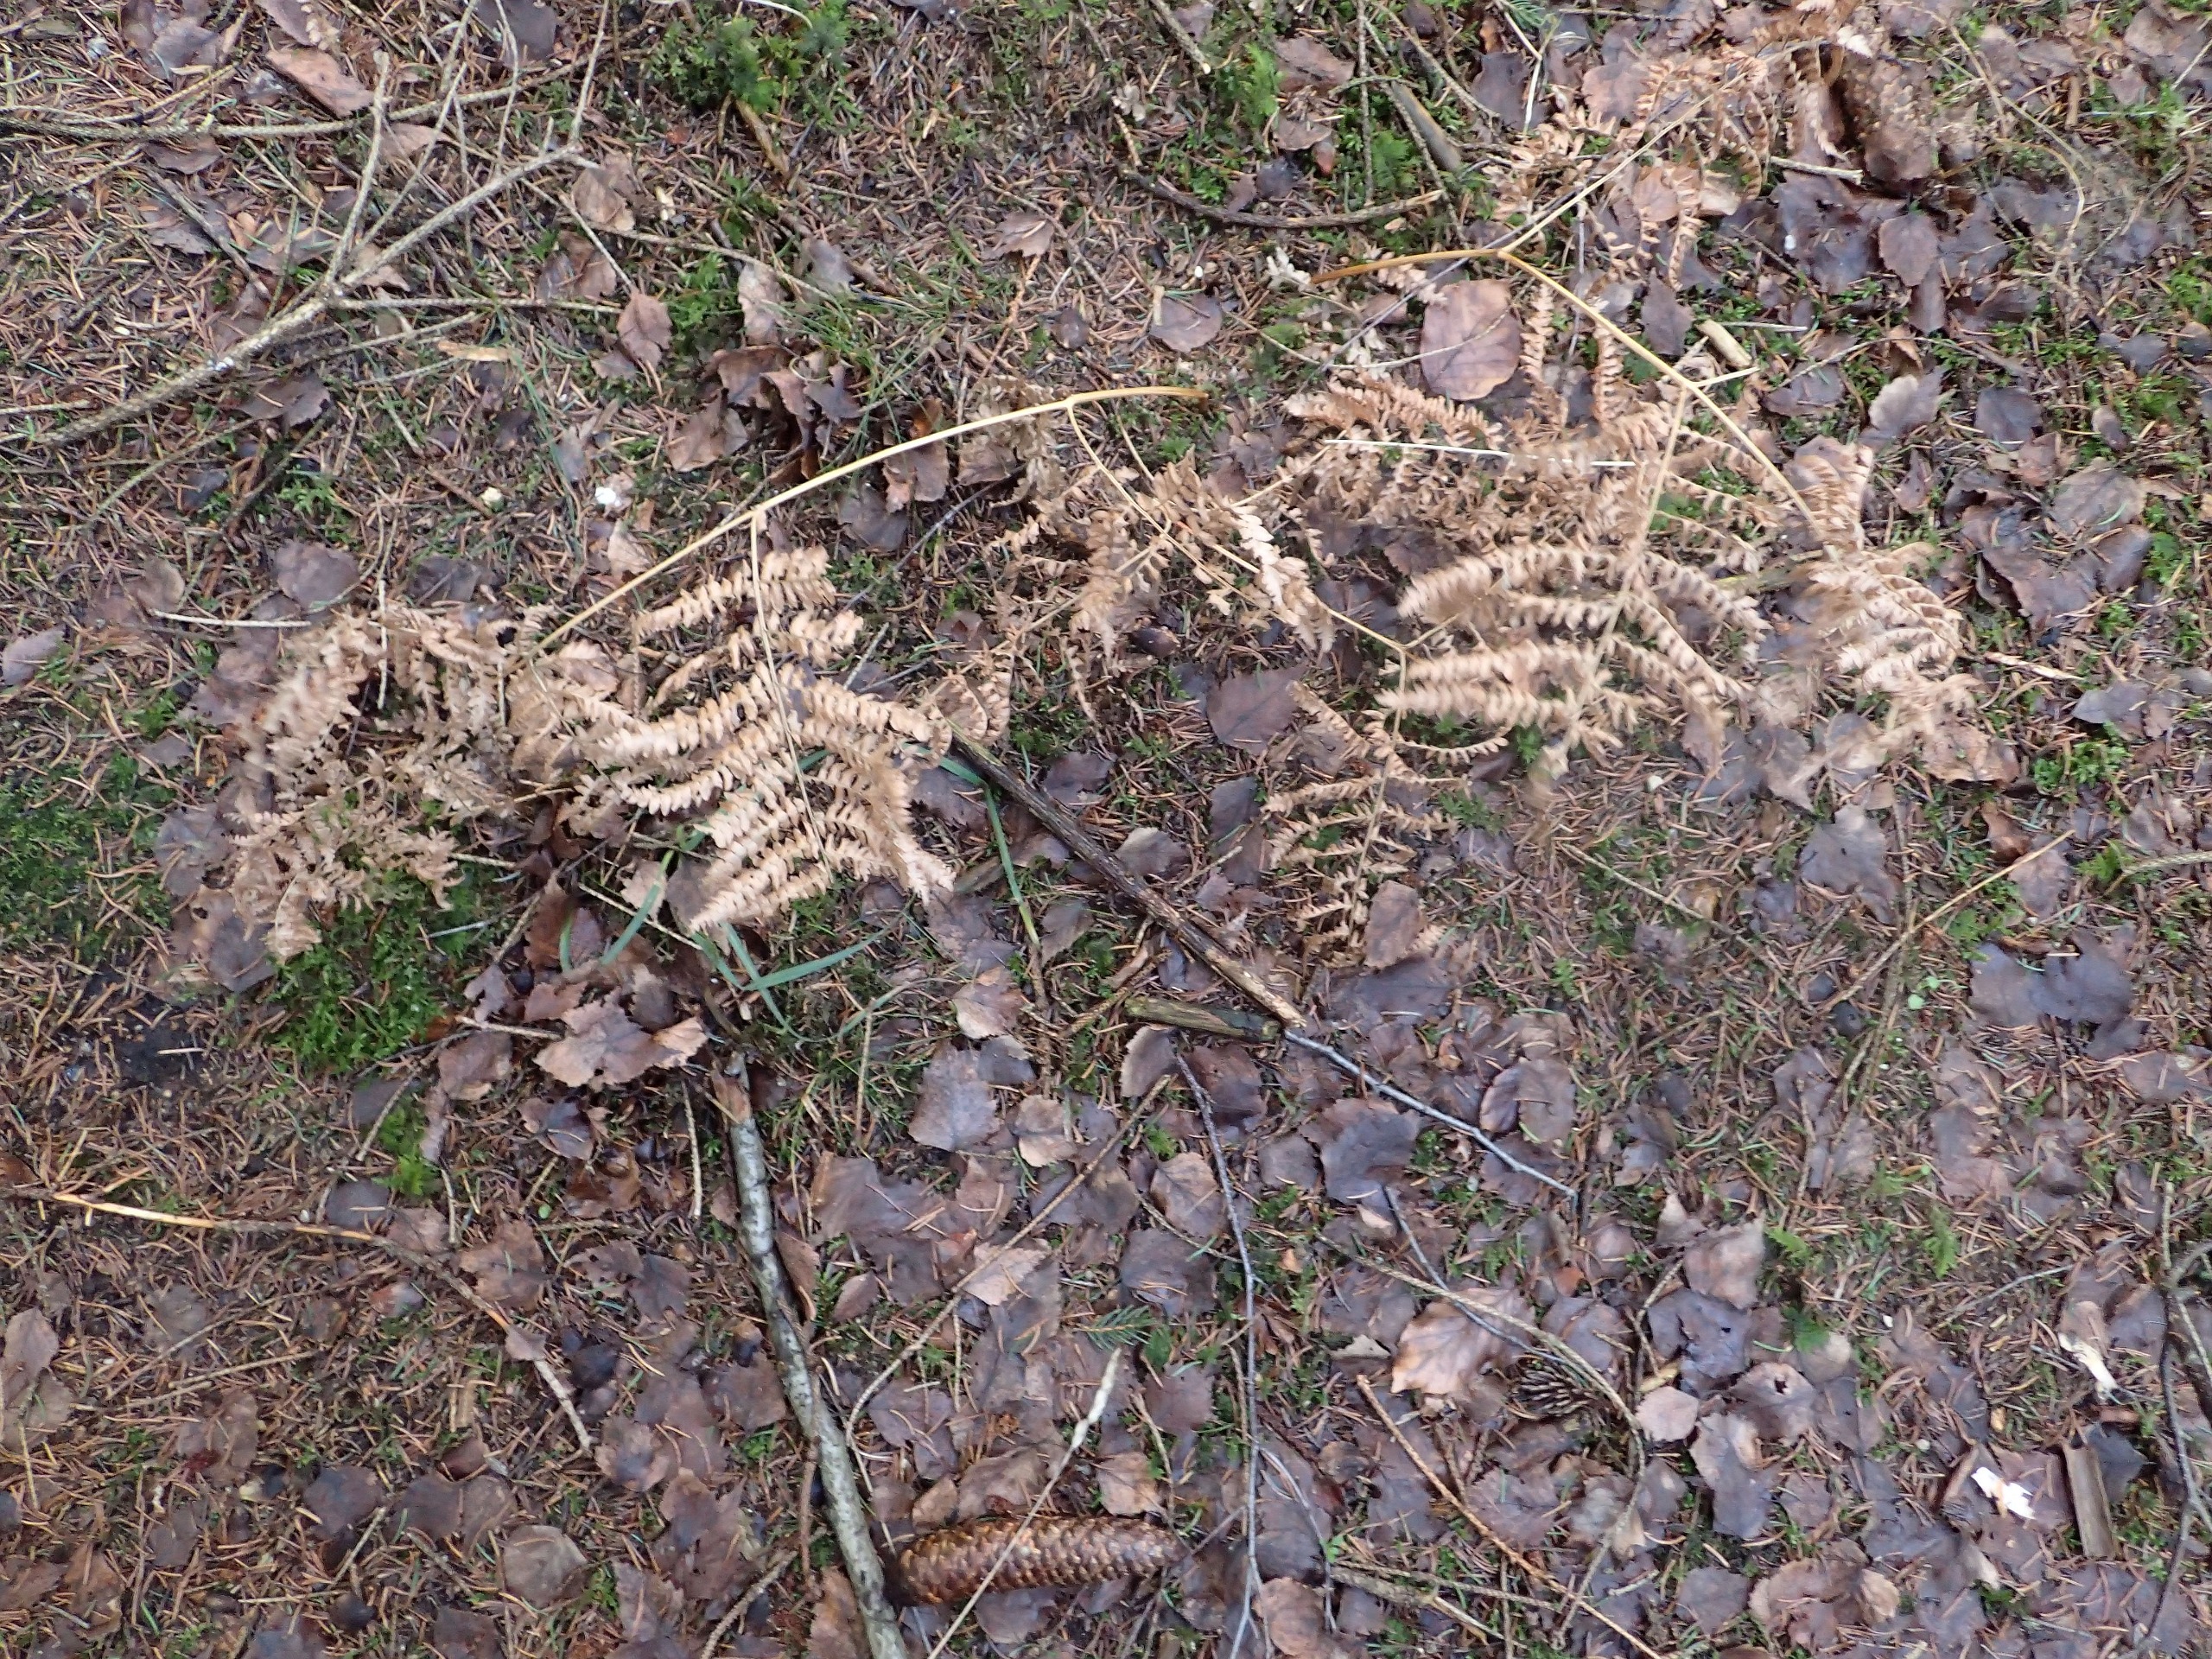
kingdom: Plantae
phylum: Tracheophyta
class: Polypodiopsida
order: Polypodiales
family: Dennstaedtiaceae
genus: Pteridium
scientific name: Pteridium aquilinum
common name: Ørnebregne
